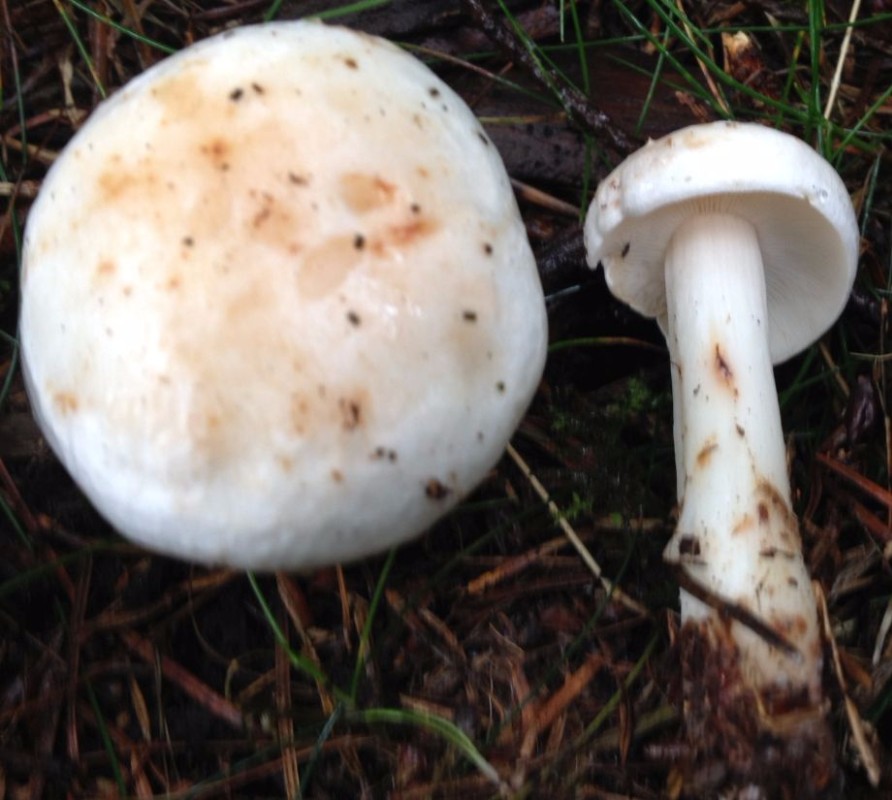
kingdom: Fungi
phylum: Basidiomycota
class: Agaricomycetes
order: Agaricales
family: Omphalotaceae
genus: Rhodocollybia
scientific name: Rhodocollybia maculata
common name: plettet fladhat
